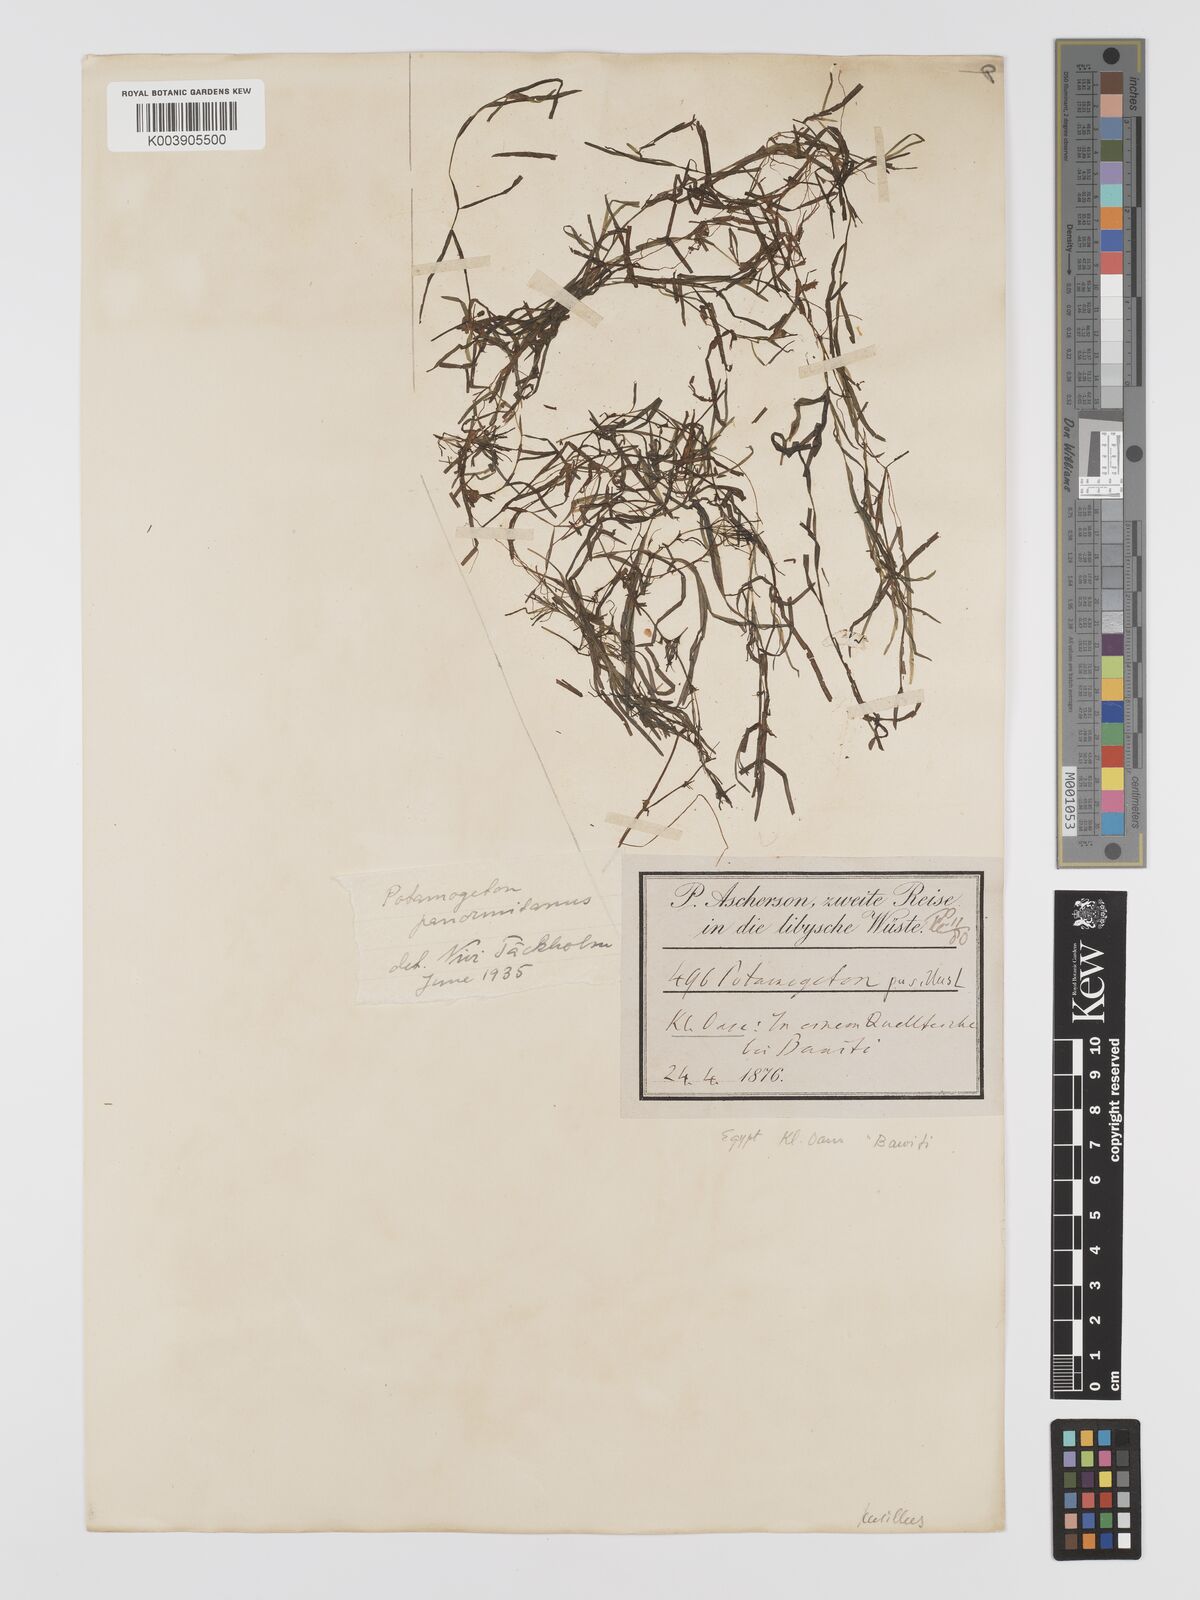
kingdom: Plantae
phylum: Tracheophyta
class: Liliopsida
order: Alismatales
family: Potamogetonaceae
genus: Potamogeton
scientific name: Potamogeton pusillus
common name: Lesser pondweed
